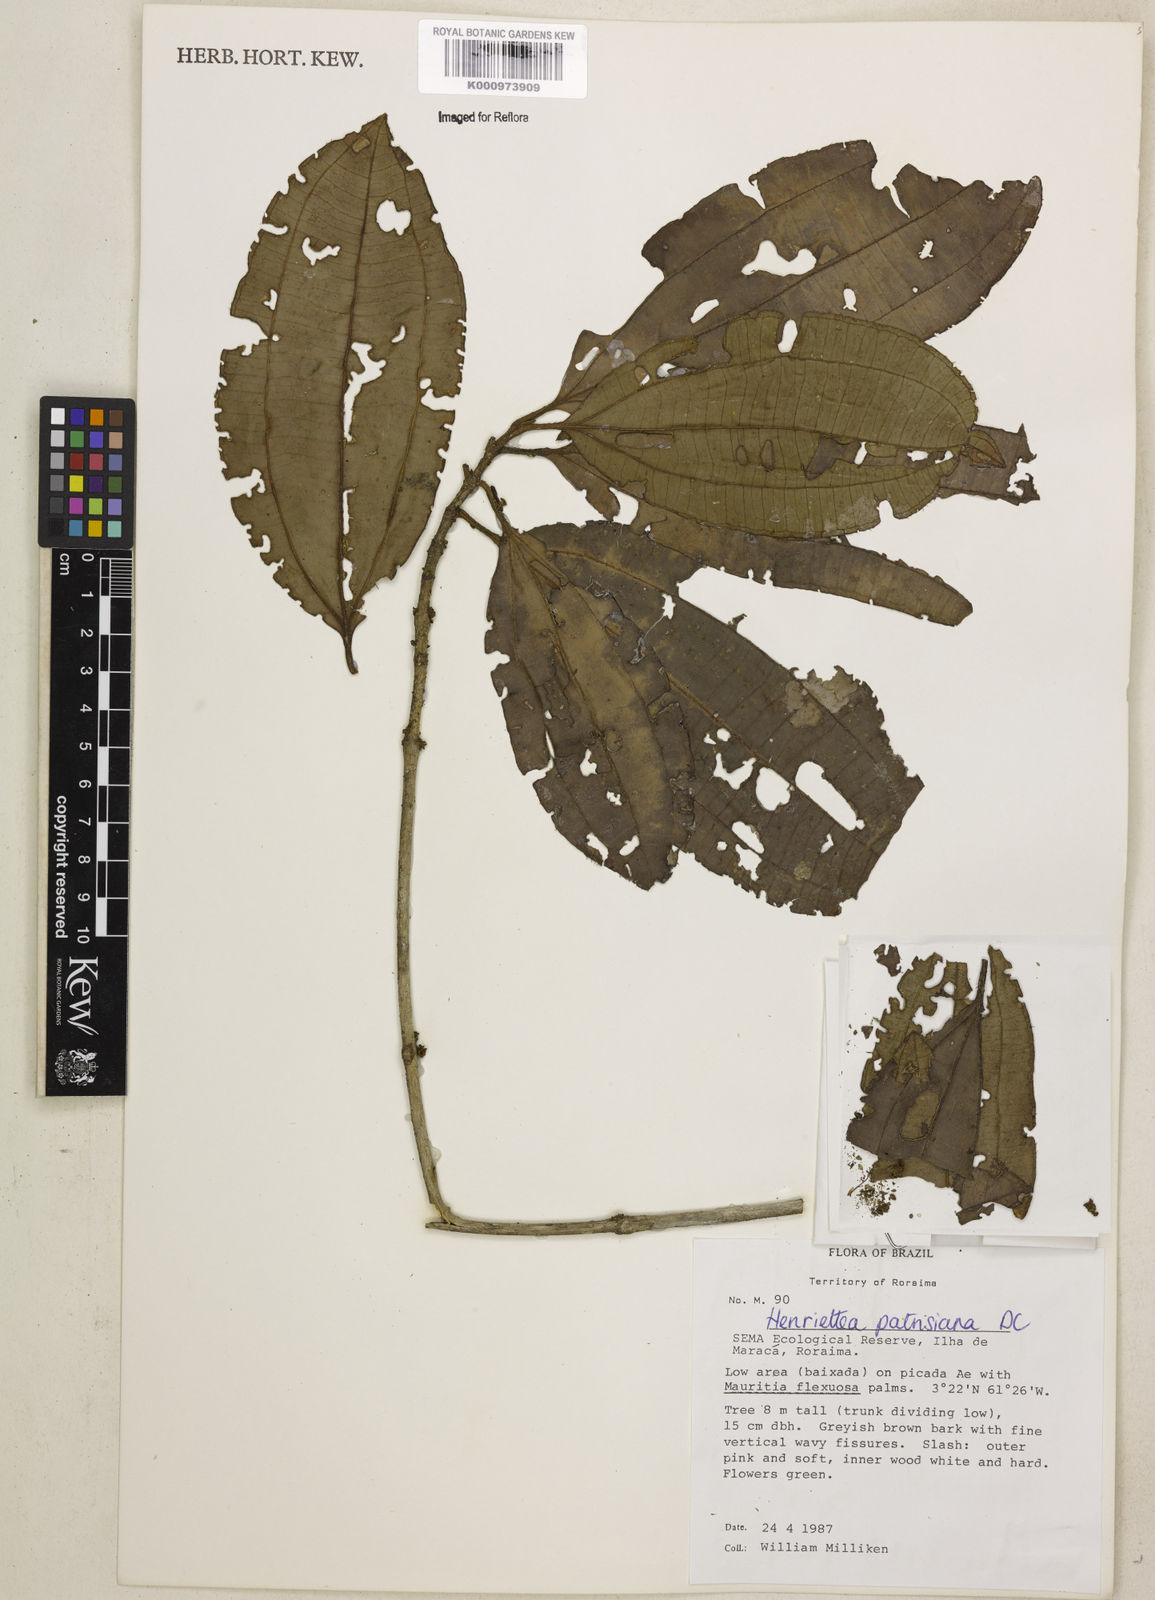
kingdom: Plantae
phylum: Tracheophyta
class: Magnoliopsida
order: Myrtales
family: Melastomataceae
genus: Henriettea
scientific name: Henriettea patrisiana
